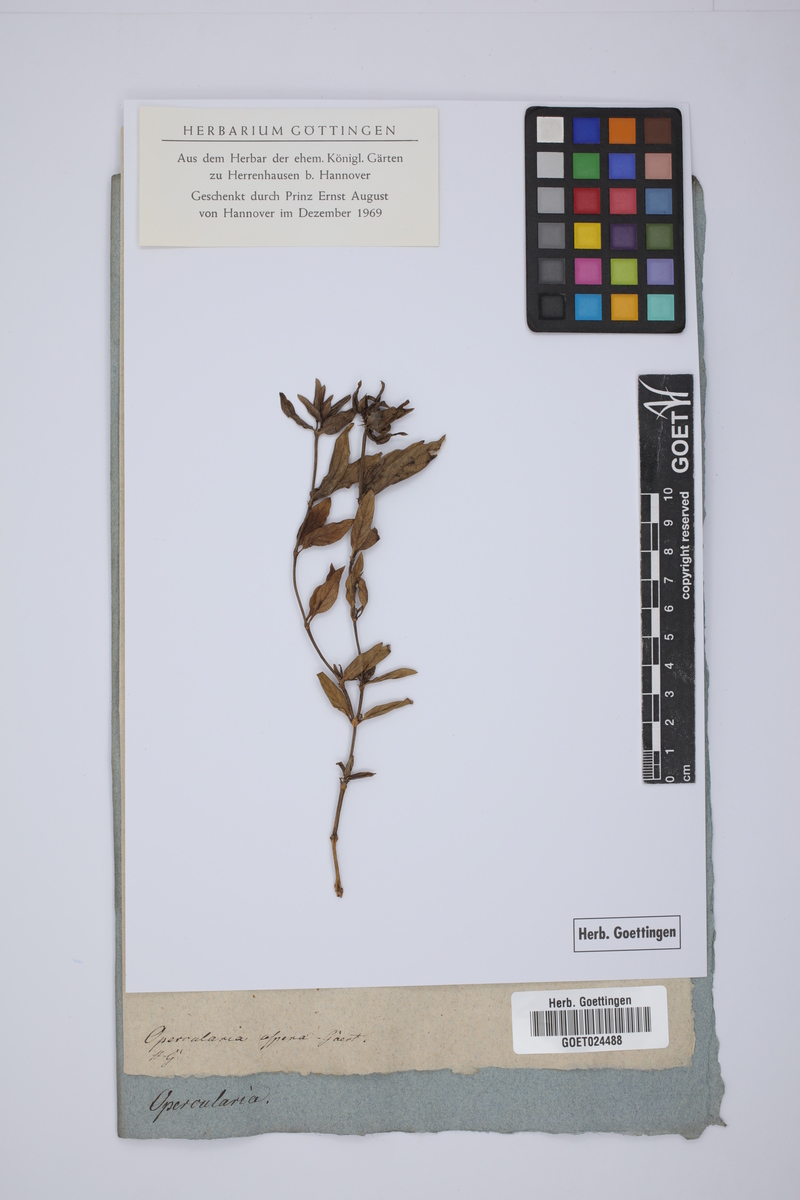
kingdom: Plantae
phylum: Tracheophyta
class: Magnoliopsida
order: Gentianales
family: Rubiaceae
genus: Opercularia
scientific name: Opercularia aspera
